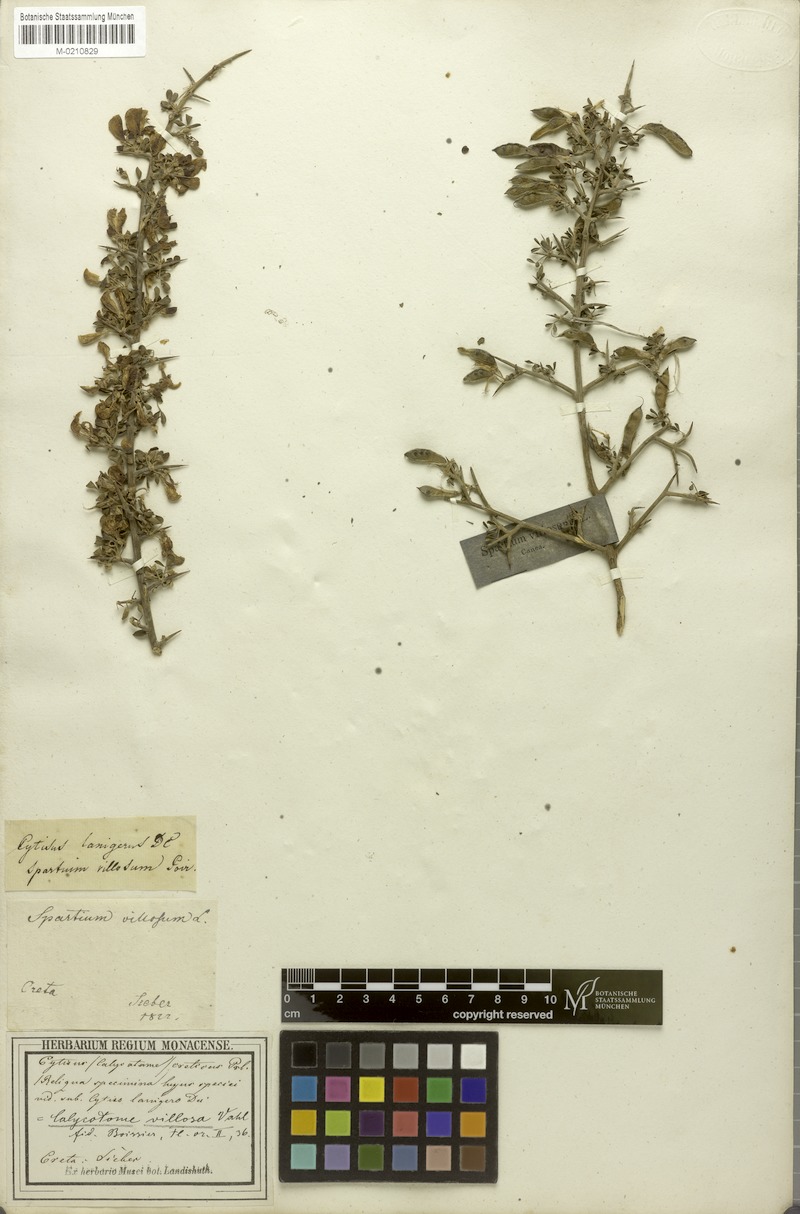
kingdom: Plantae
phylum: Tracheophyta
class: Magnoliopsida
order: Fabales
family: Fabaceae
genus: Calicotome
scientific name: Calicotome villosa
